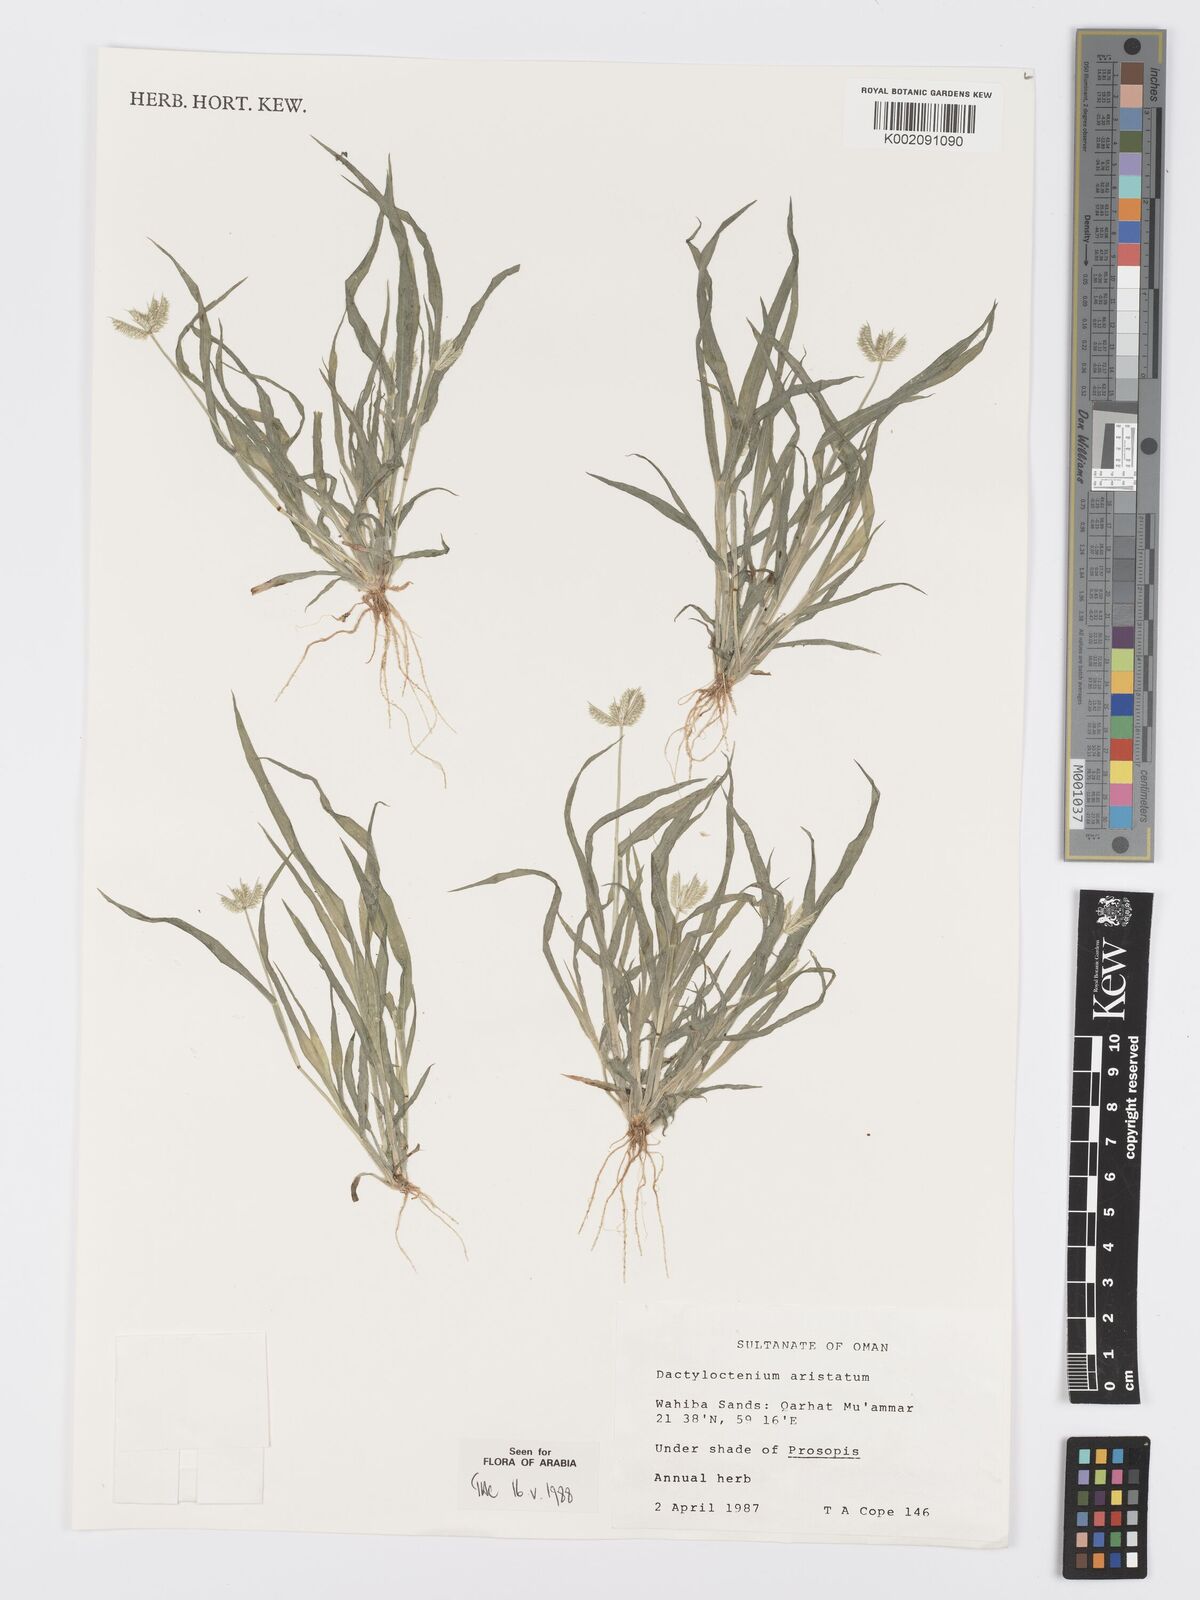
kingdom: Plantae
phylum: Tracheophyta
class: Liliopsida
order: Poales
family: Poaceae
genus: Dactyloctenium
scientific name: Dactyloctenium aristatum
